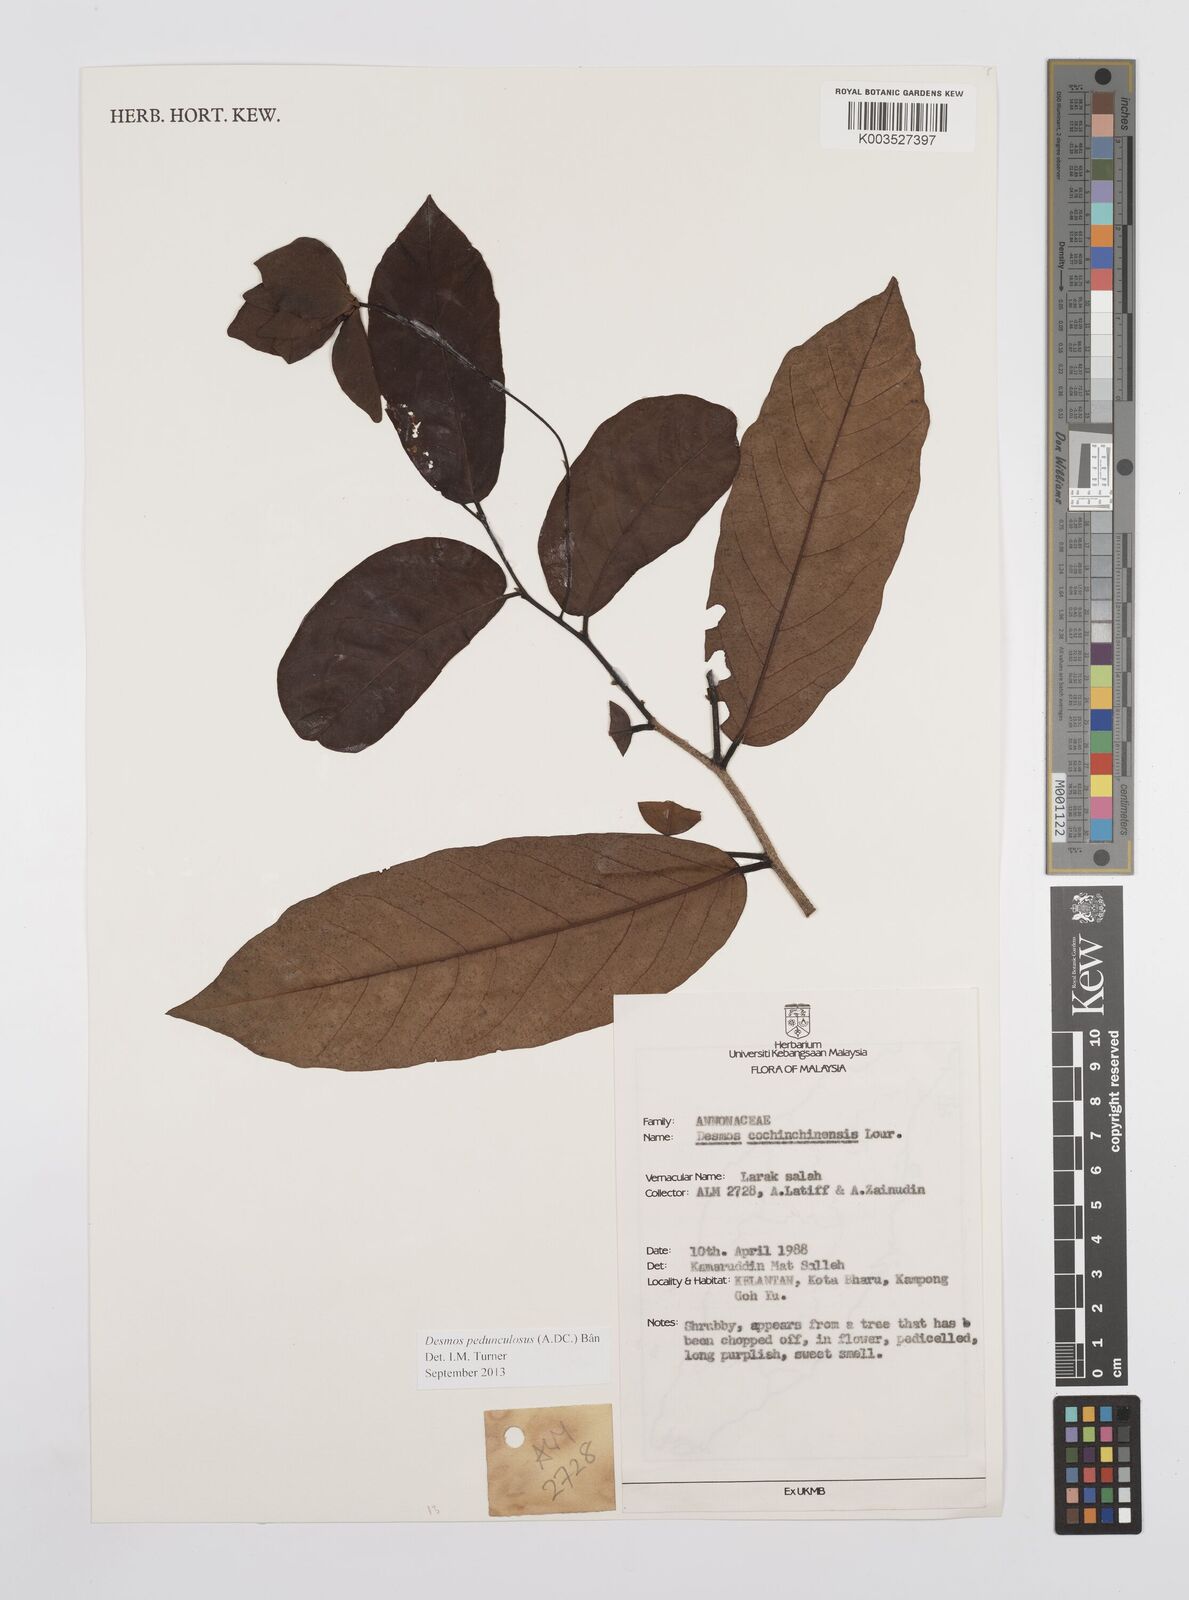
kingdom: Plantae
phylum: Tracheophyta
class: Magnoliopsida
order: Magnoliales
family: Annonaceae
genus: Desmos
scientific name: Desmos cochinchinensis
